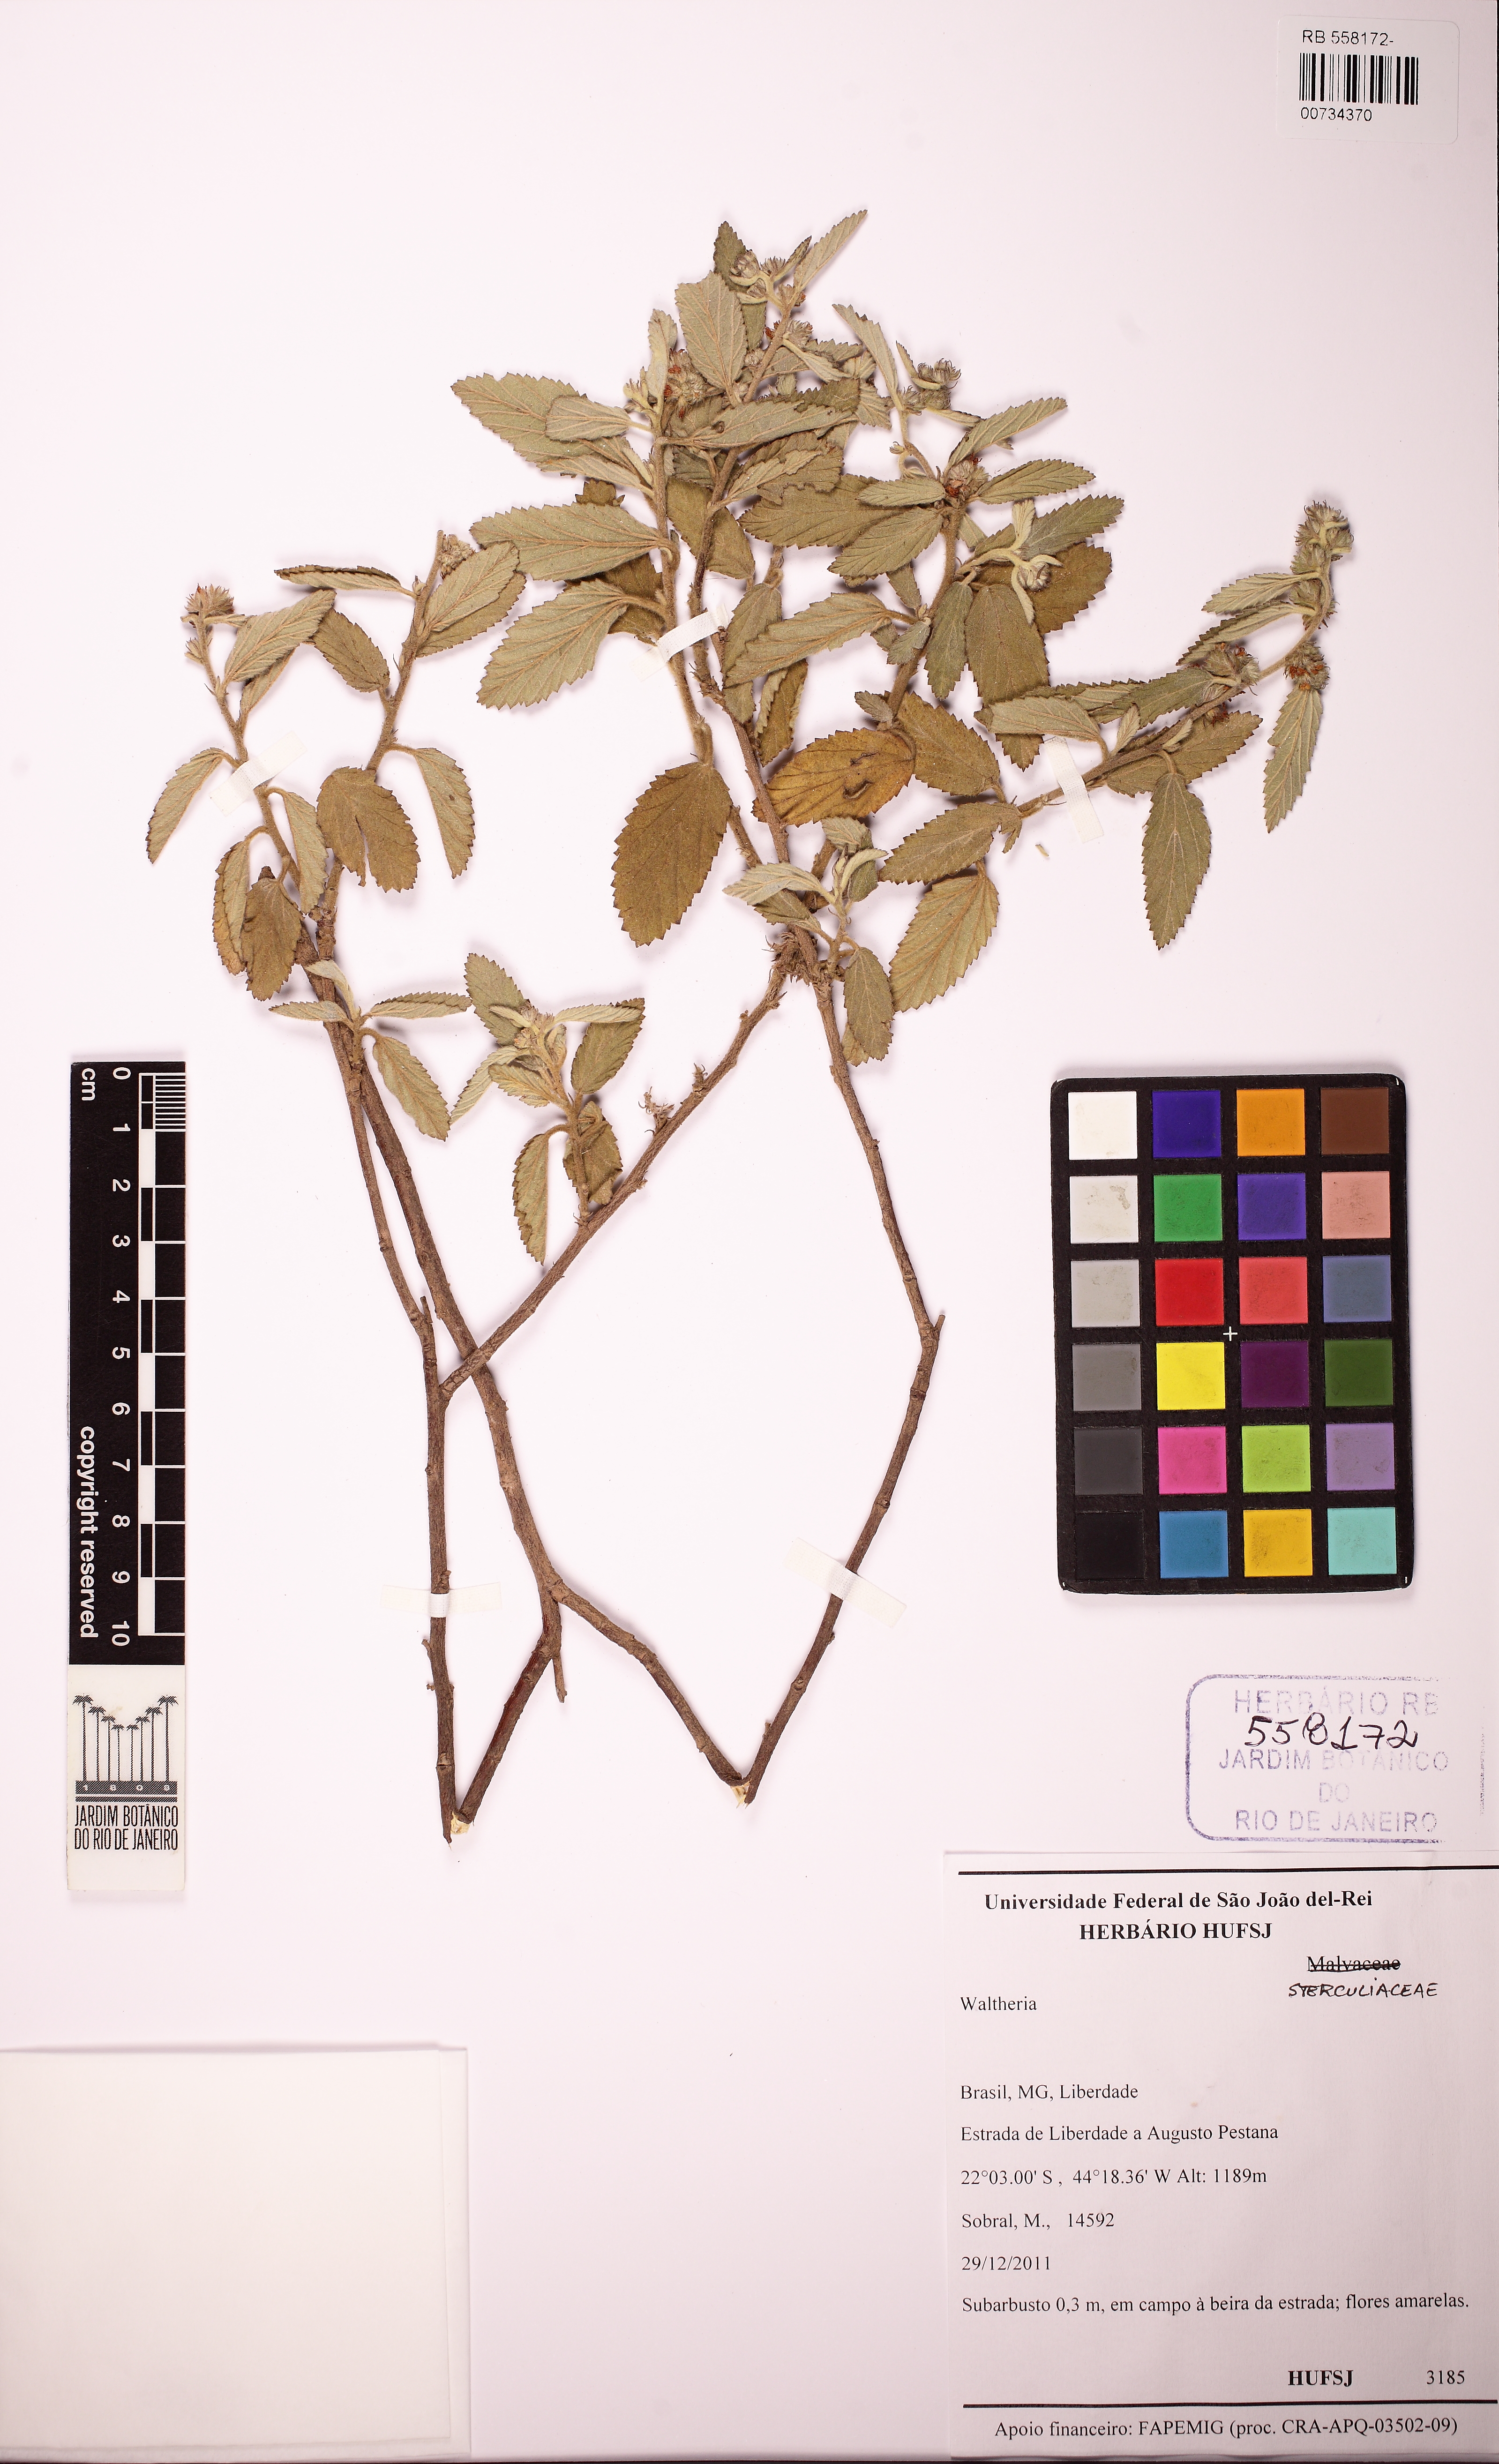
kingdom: Plantae
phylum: Tracheophyta
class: Magnoliopsida
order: Malvales
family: Malvaceae
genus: Waltheria
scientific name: Waltheria
